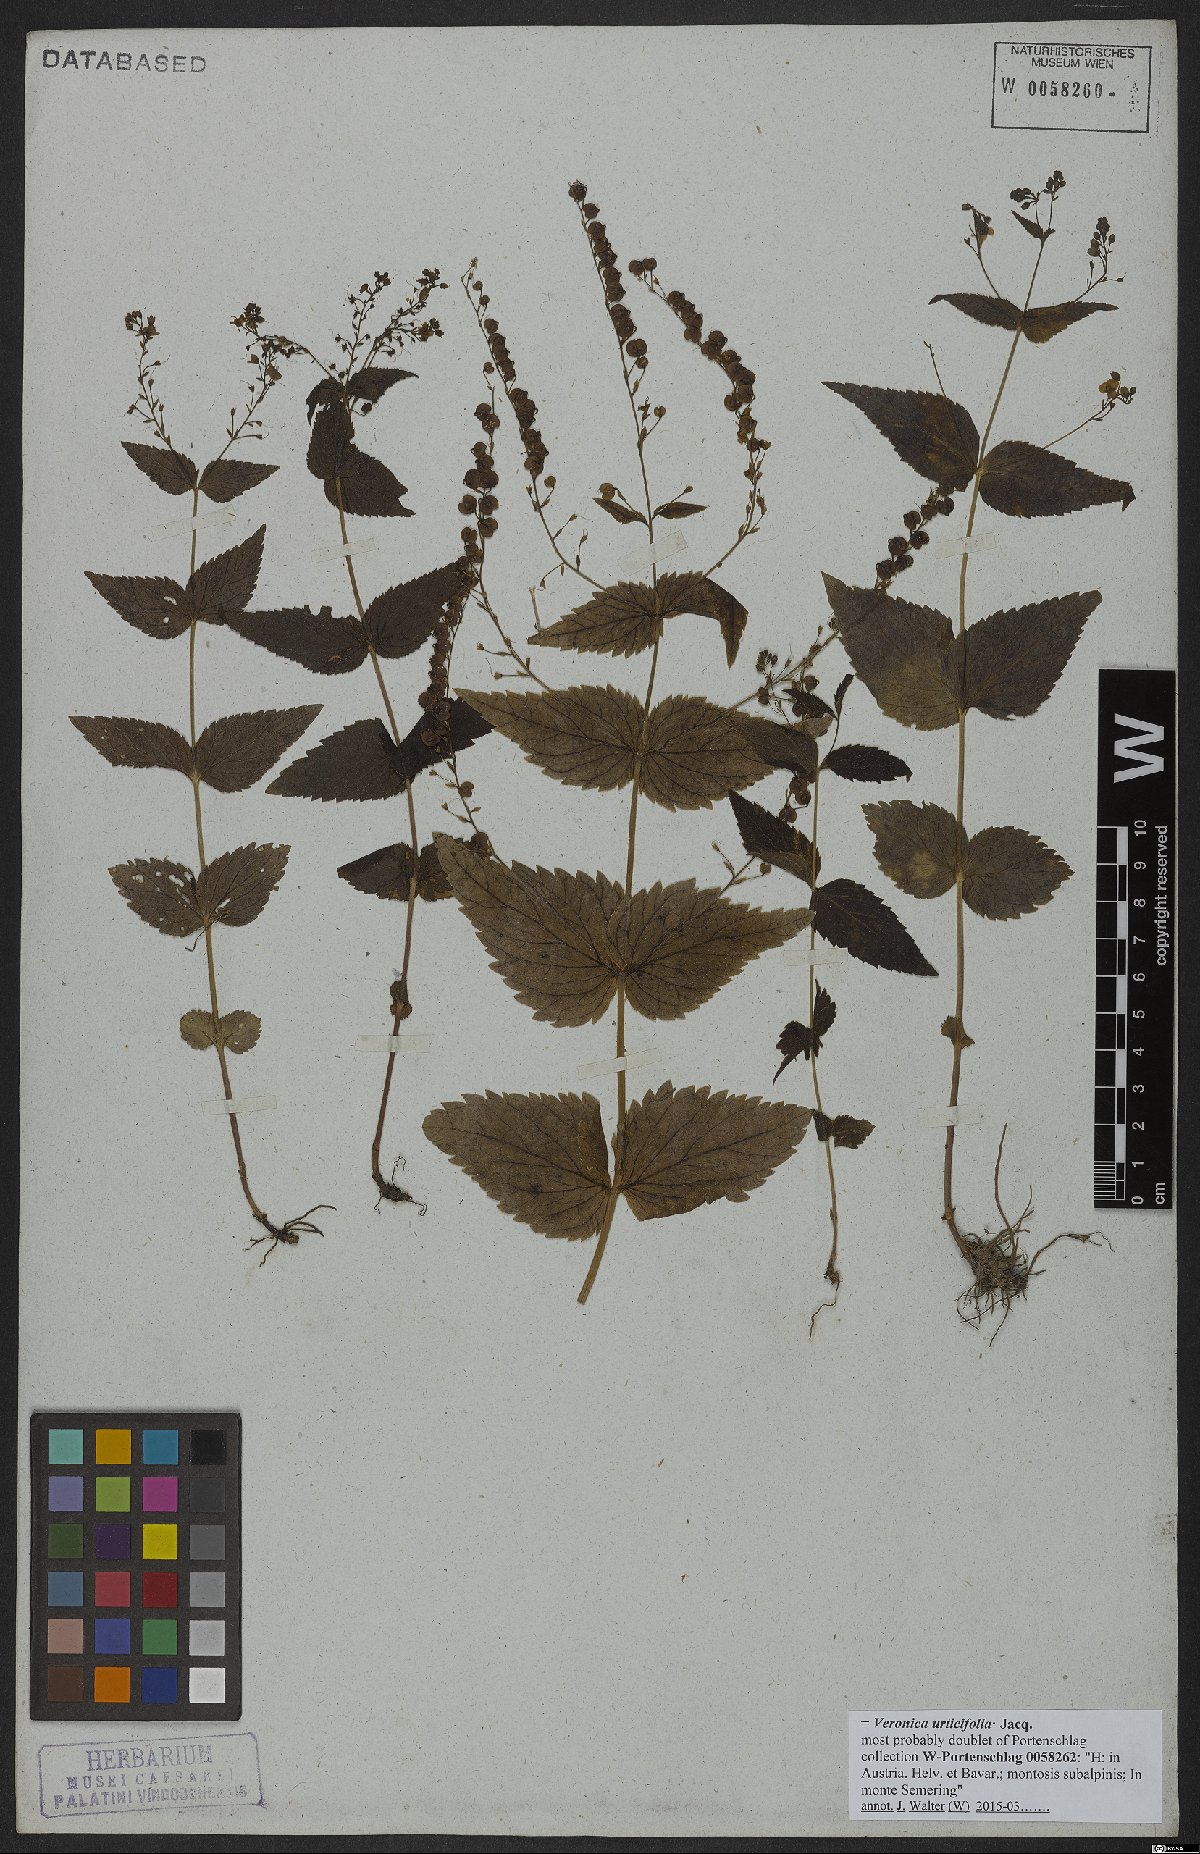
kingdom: Plantae
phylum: Tracheophyta
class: Magnoliopsida
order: Lamiales
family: Plantaginaceae
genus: Veronica
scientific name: Veronica urticifolia
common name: Nettle-leaf speedwell
